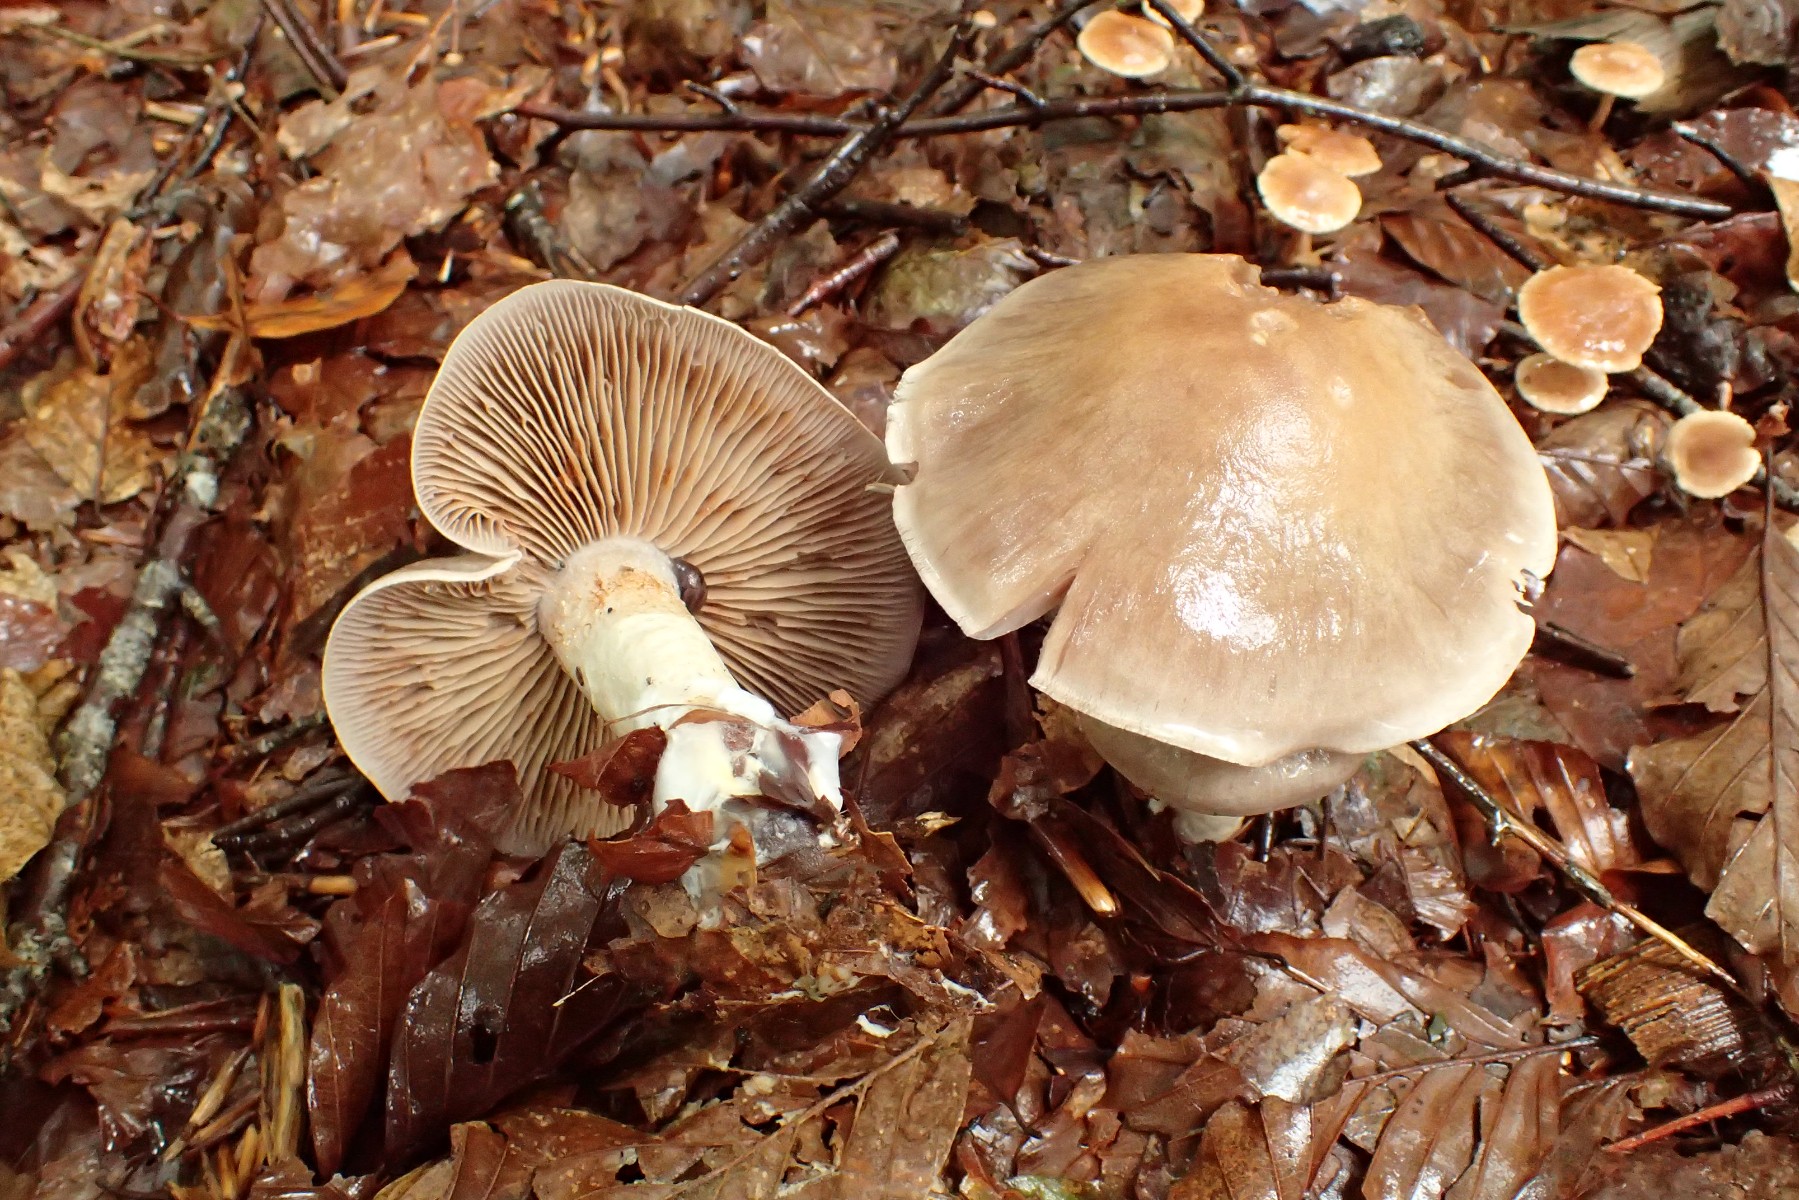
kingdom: Fungi
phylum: Basidiomycota
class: Agaricomycetes
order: Agaricales
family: Cortinariaceae
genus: Cortinarius
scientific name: Cortinarius
